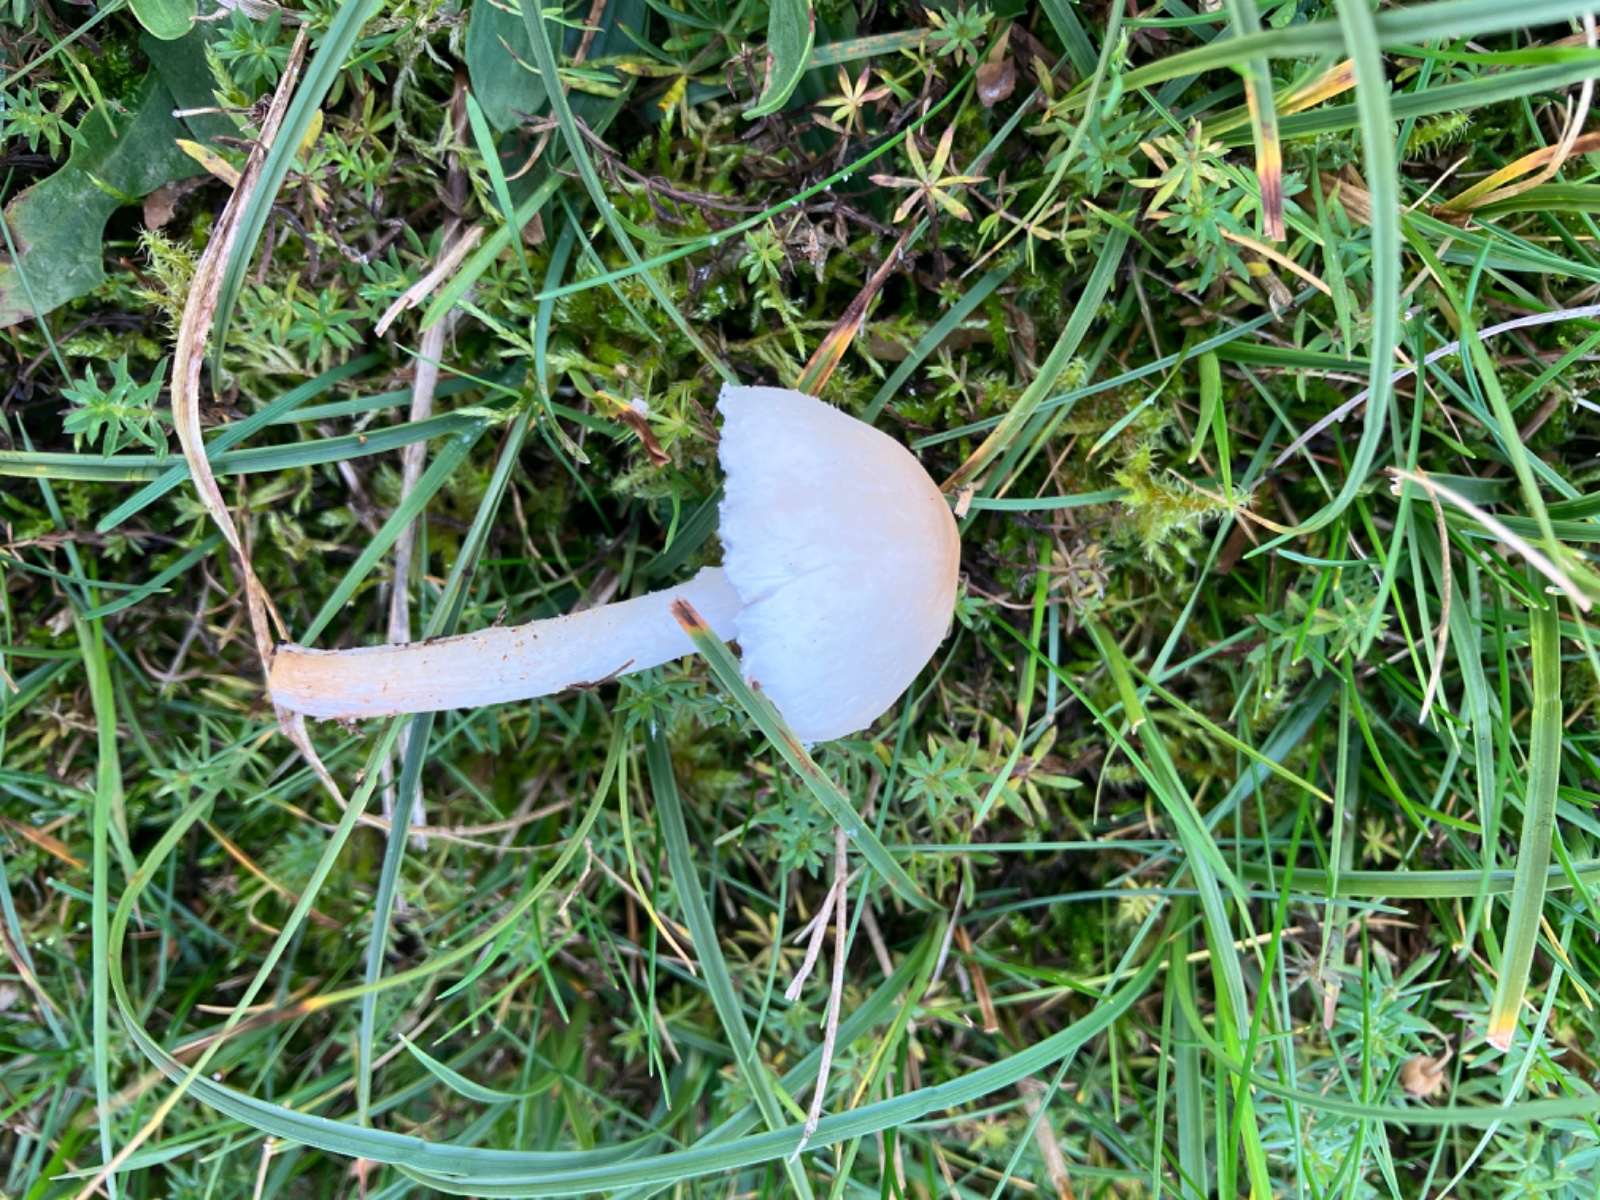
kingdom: Fungi
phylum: Basidiomycota
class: Agaricomycetes
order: Agaricales
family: Agaricaceae
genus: Lepiota
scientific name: Lepiota erminea
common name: hvid parasolhat
